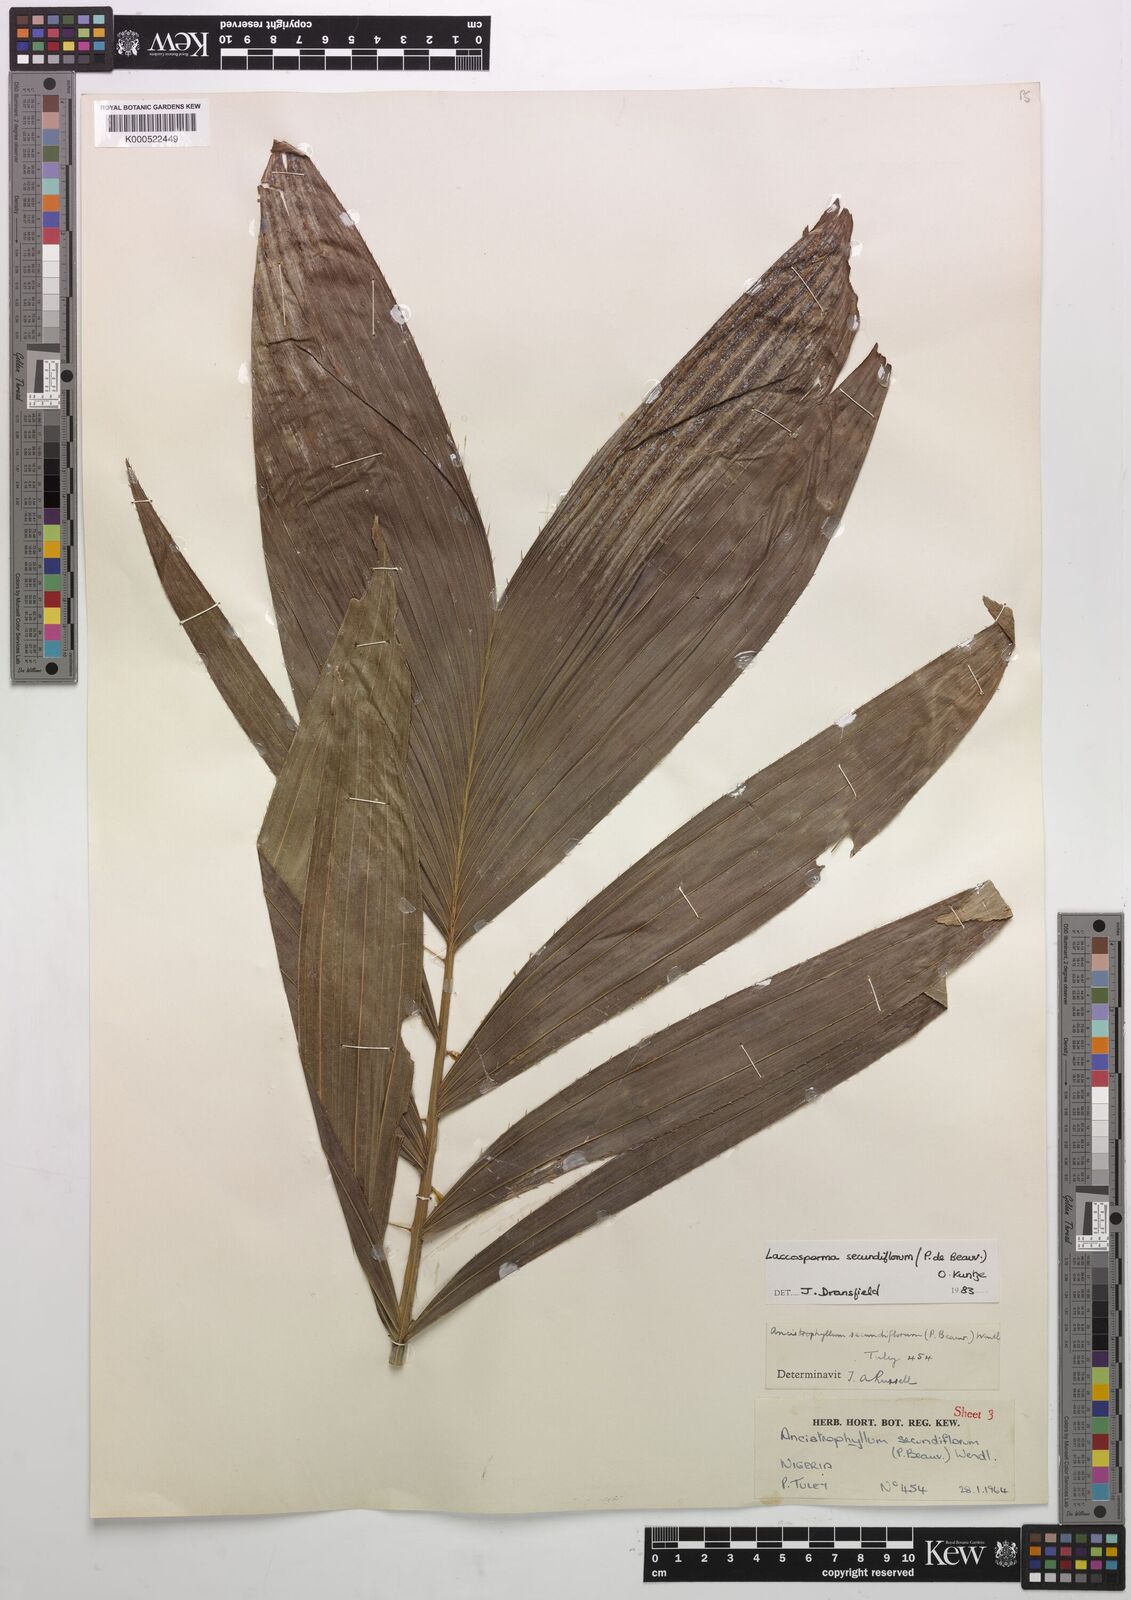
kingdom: Plantae
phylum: Tracheophyta
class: Liliopsida
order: Arecales
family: Arecaceae
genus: Laccosperma
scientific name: Laccosperma secundiflorum
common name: Rattan
